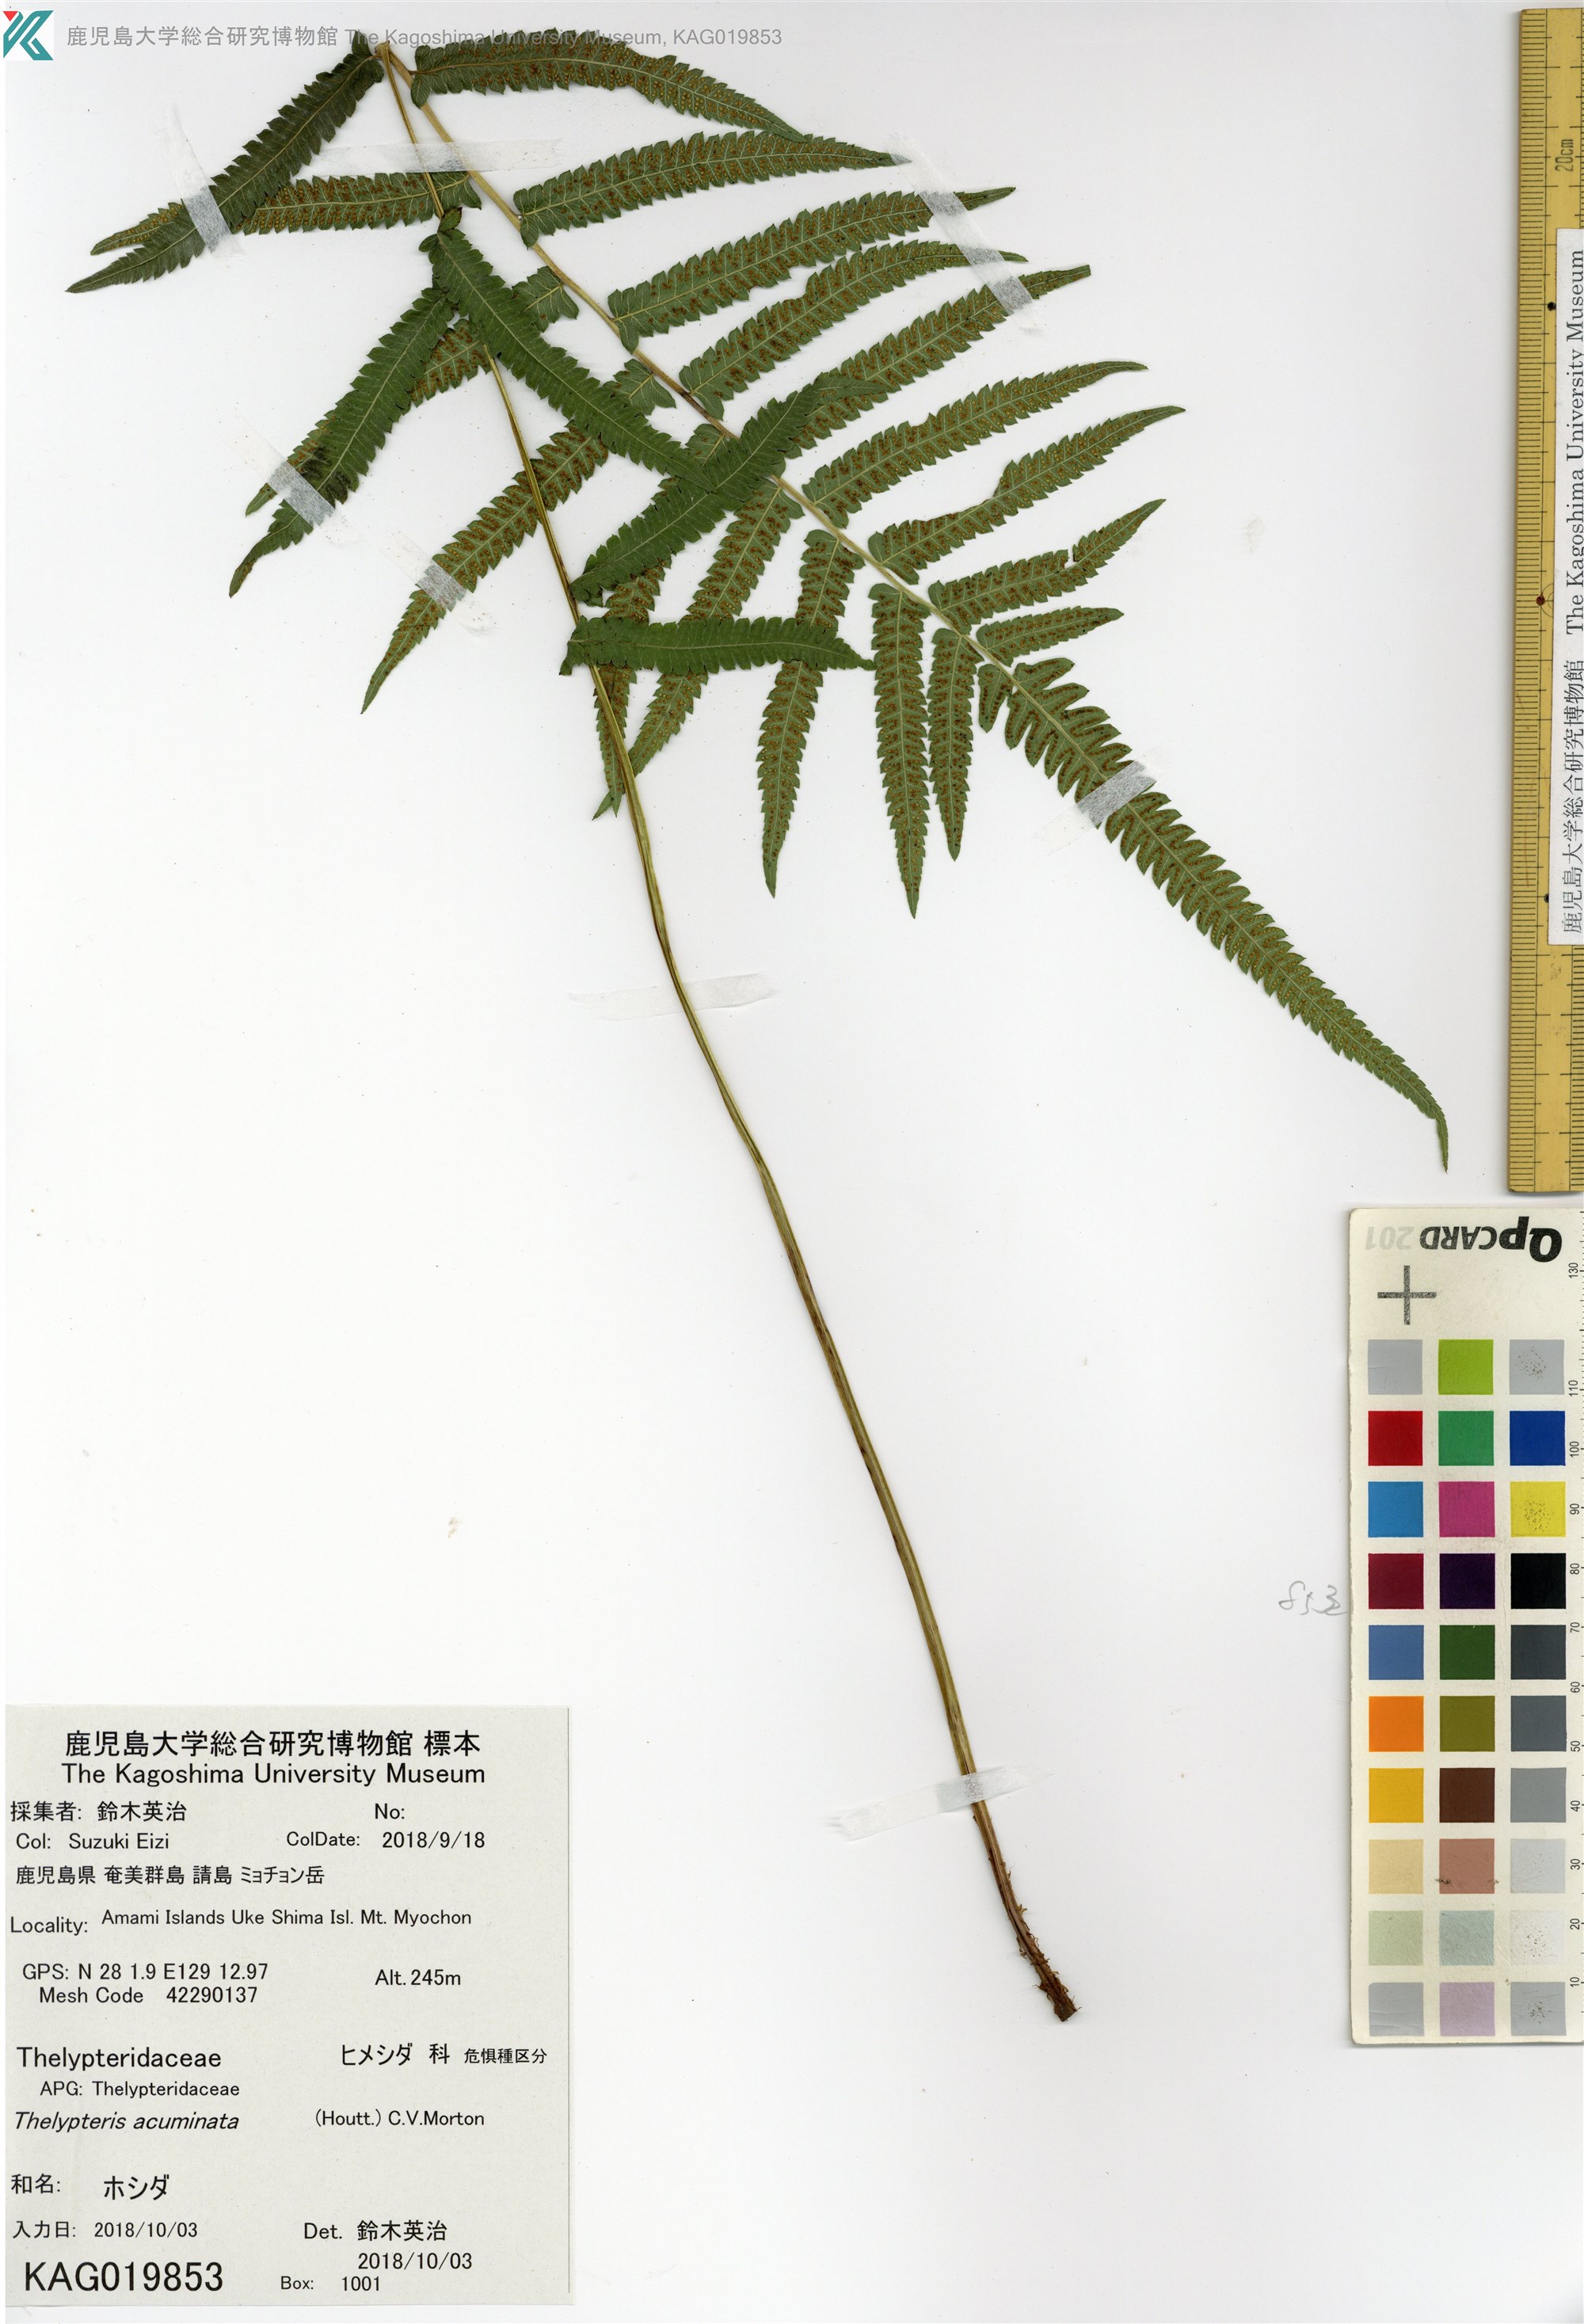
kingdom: Plantae
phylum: Tracheophyta
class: Polypodiopsida
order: Polypodiales
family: Thelypteridaceae
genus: Christella
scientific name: Christella acuminata
